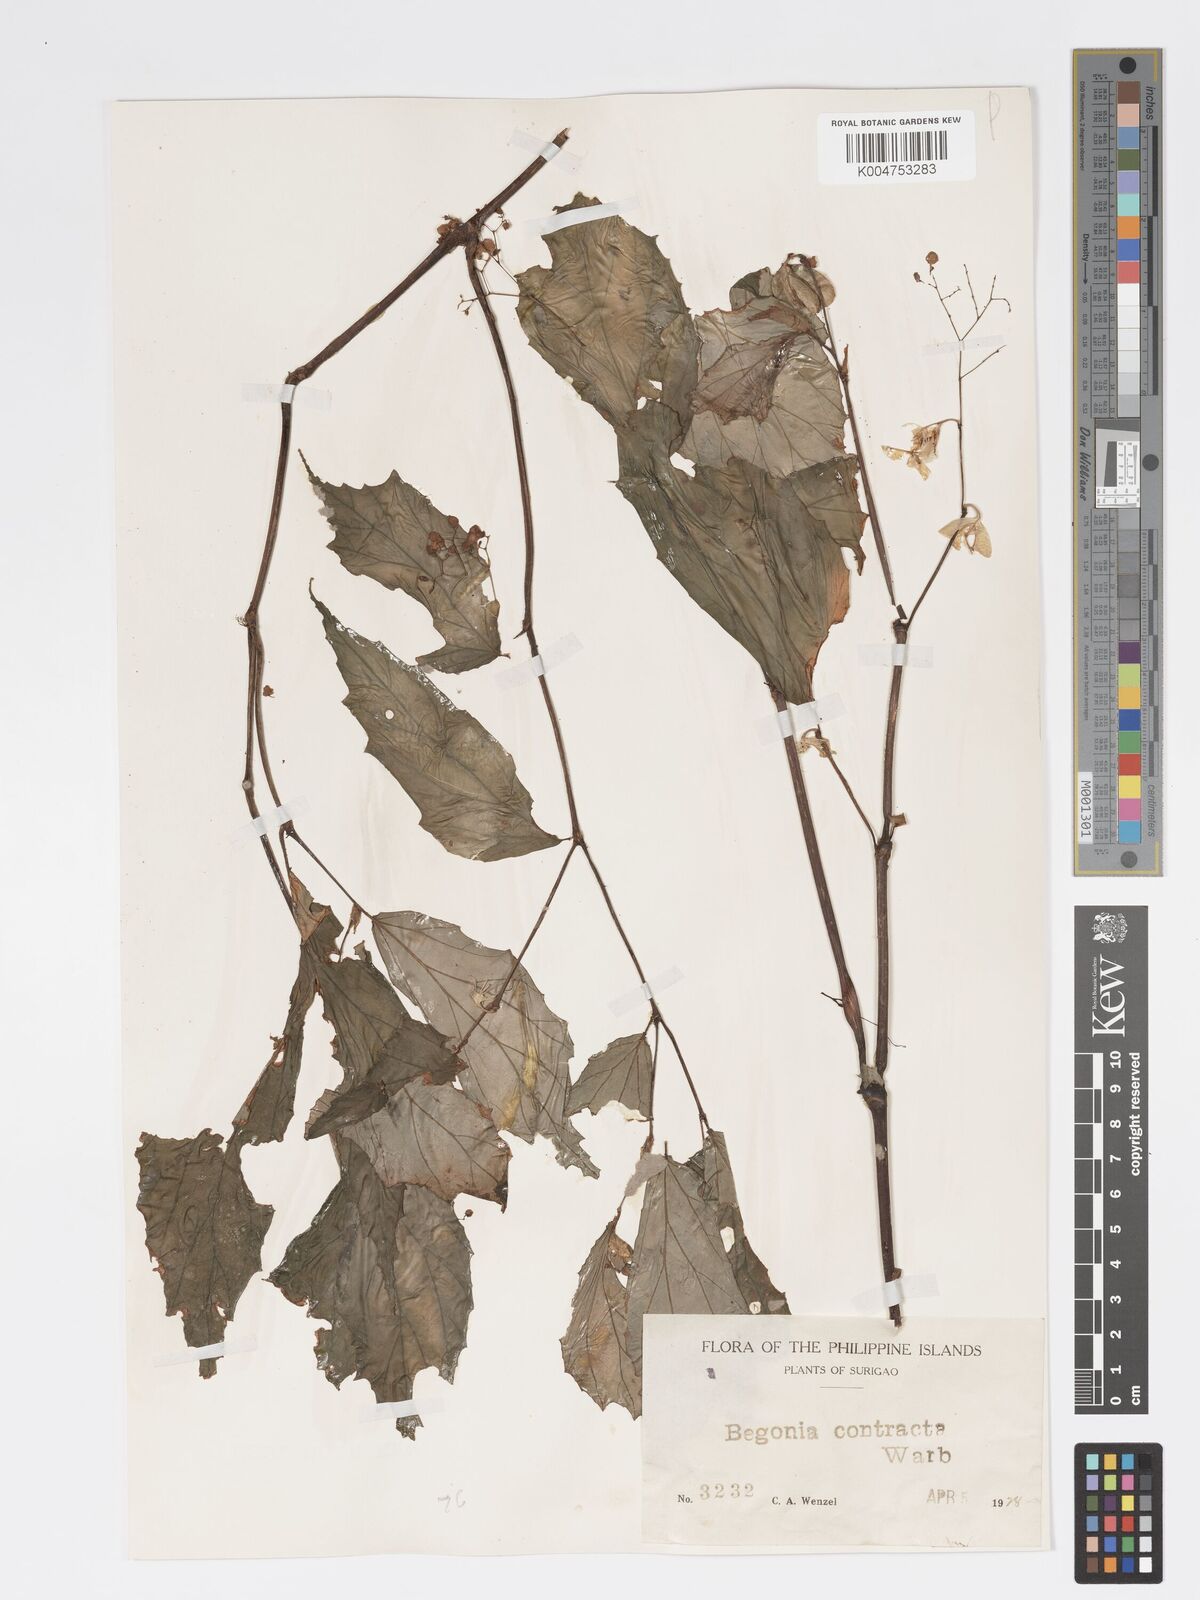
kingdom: Plantae
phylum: Tracheophyta
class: Magnoliopsida
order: Cucurbitales
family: Begoniaceae
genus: Begonia
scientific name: Begonia contracta
